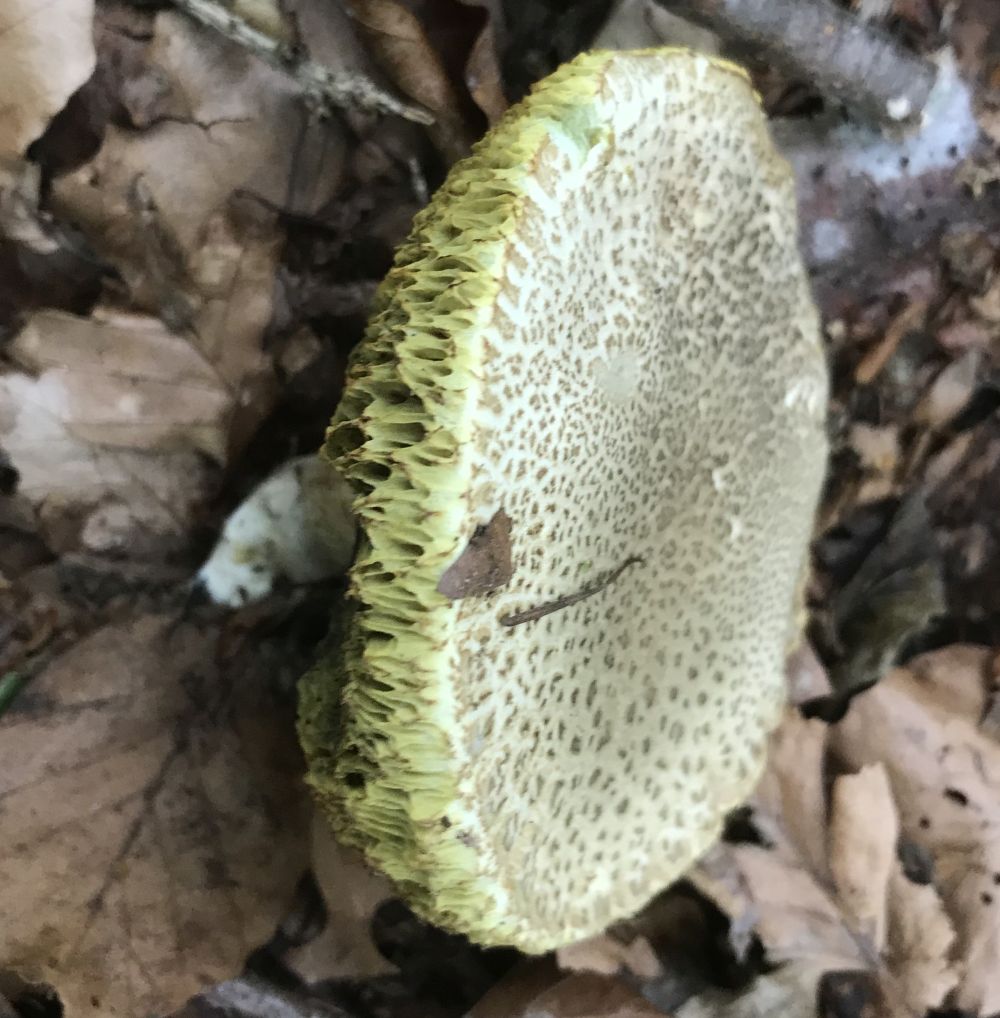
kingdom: Fungi
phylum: Basidiomycota
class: Agaricomycetes
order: Boletales
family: Boletaceae
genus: Xerocomellus
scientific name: Xerocomellus porosporus
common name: hvidsprukken rørhat
